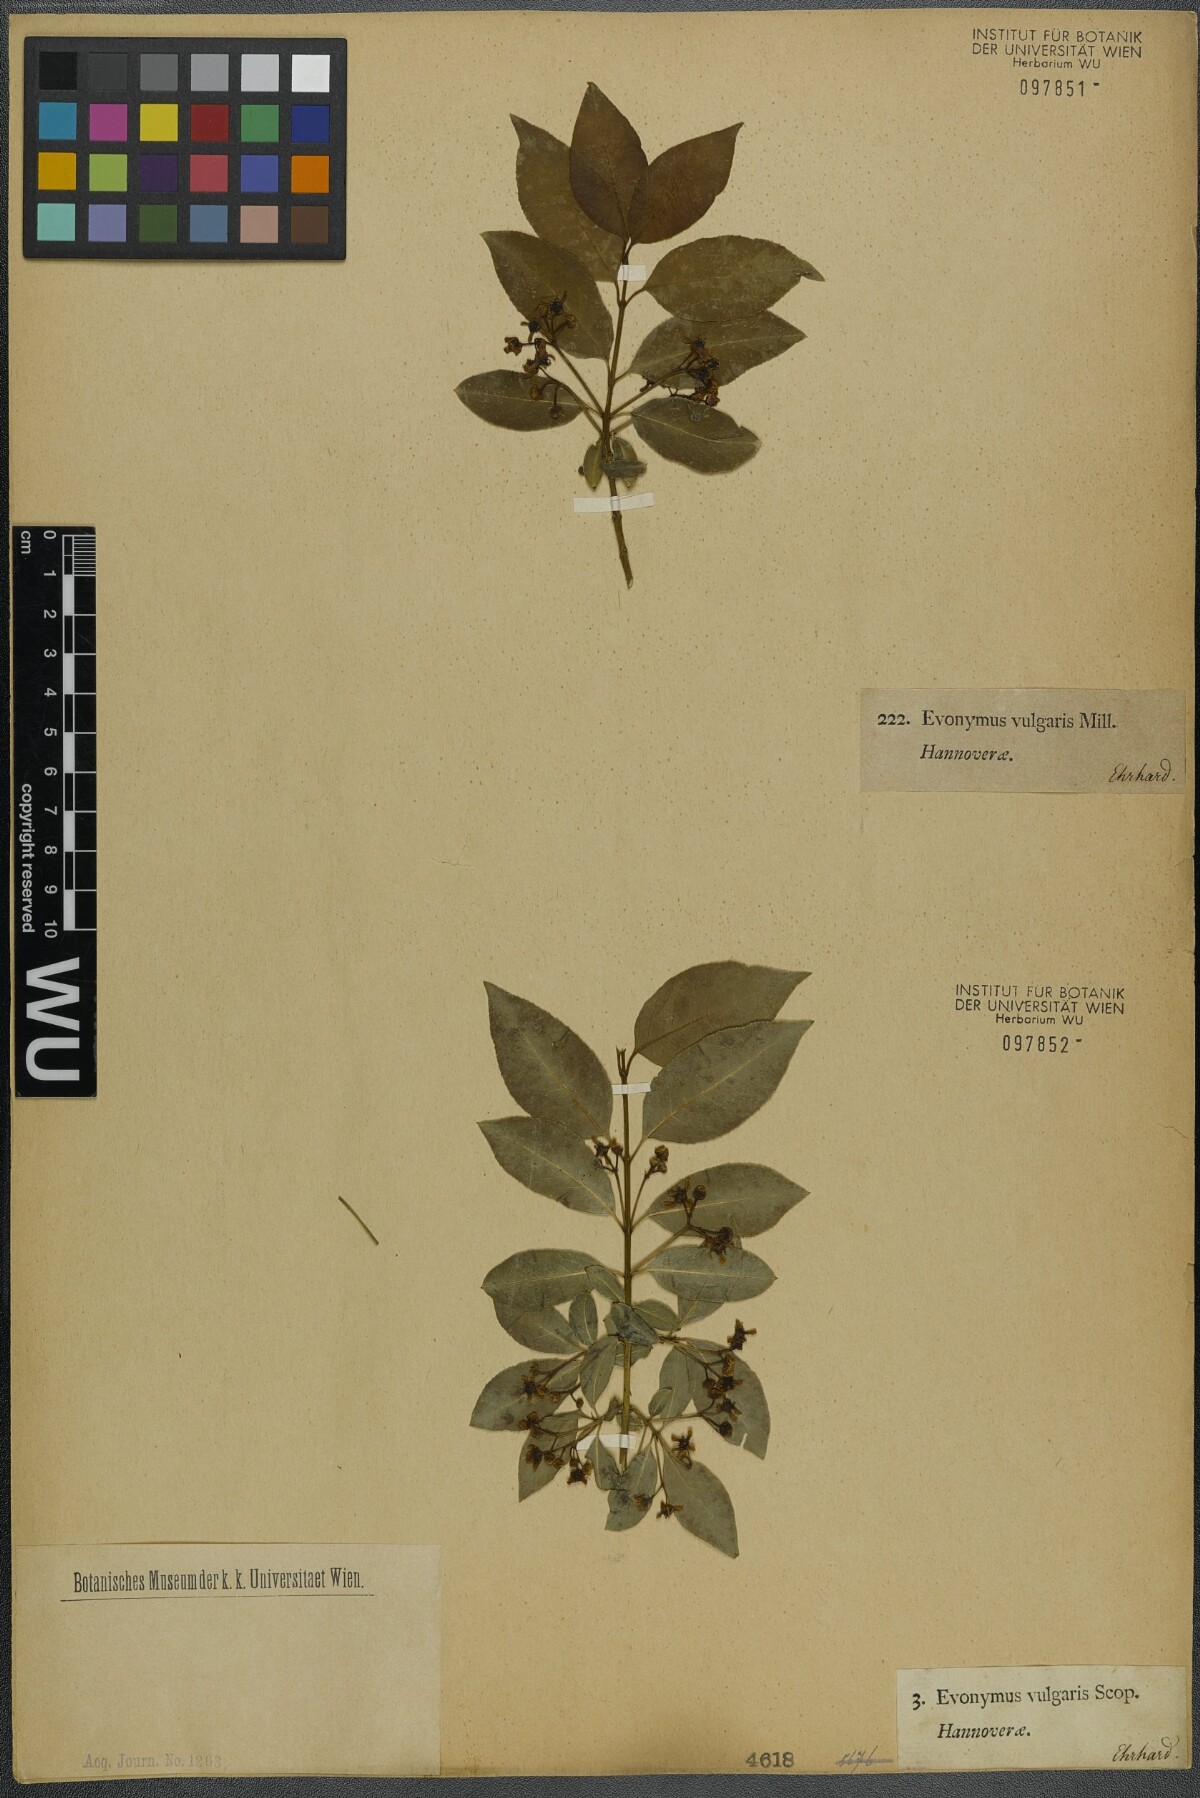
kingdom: Plantae
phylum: Tracheophyta
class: Magnoliopsida
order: Celastrales
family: Celastraceae
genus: Euonymus
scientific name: Euonymus europaeus
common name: Spindle
